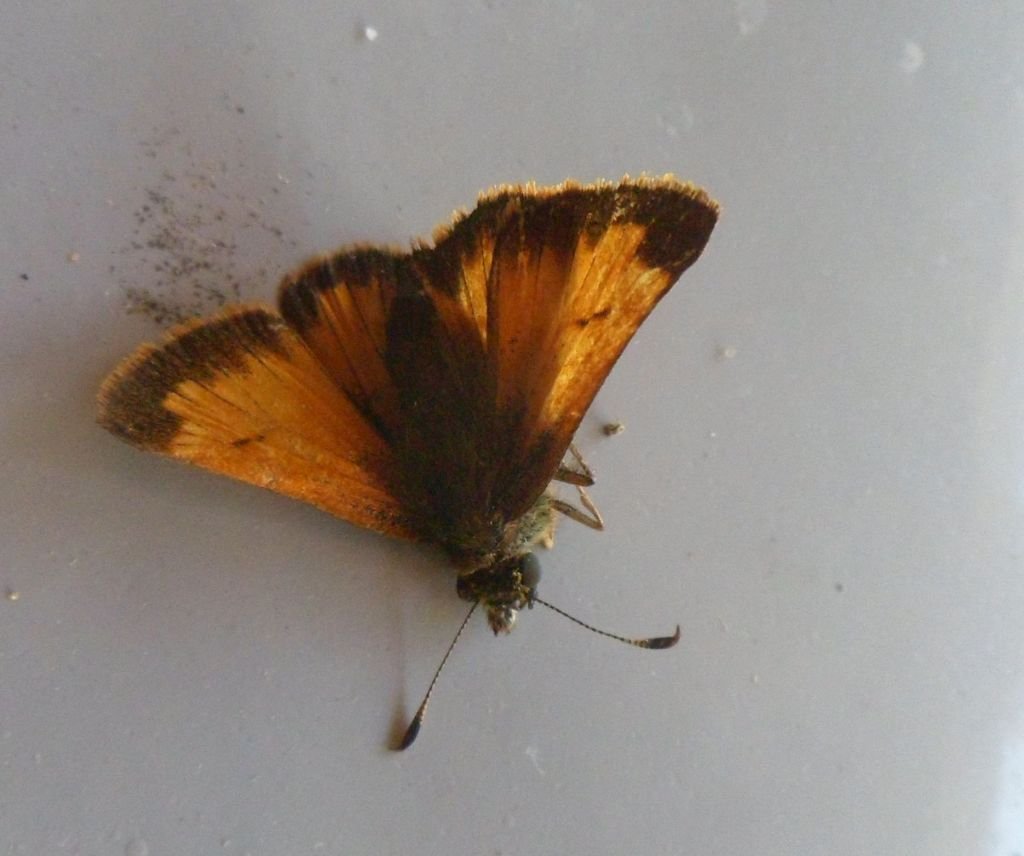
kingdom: Animalia
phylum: Arthropoda
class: Insecta
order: Lepidoptera
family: Hesperiidae
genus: Lon
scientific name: Lon hobomok
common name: Hobomok Skipper
